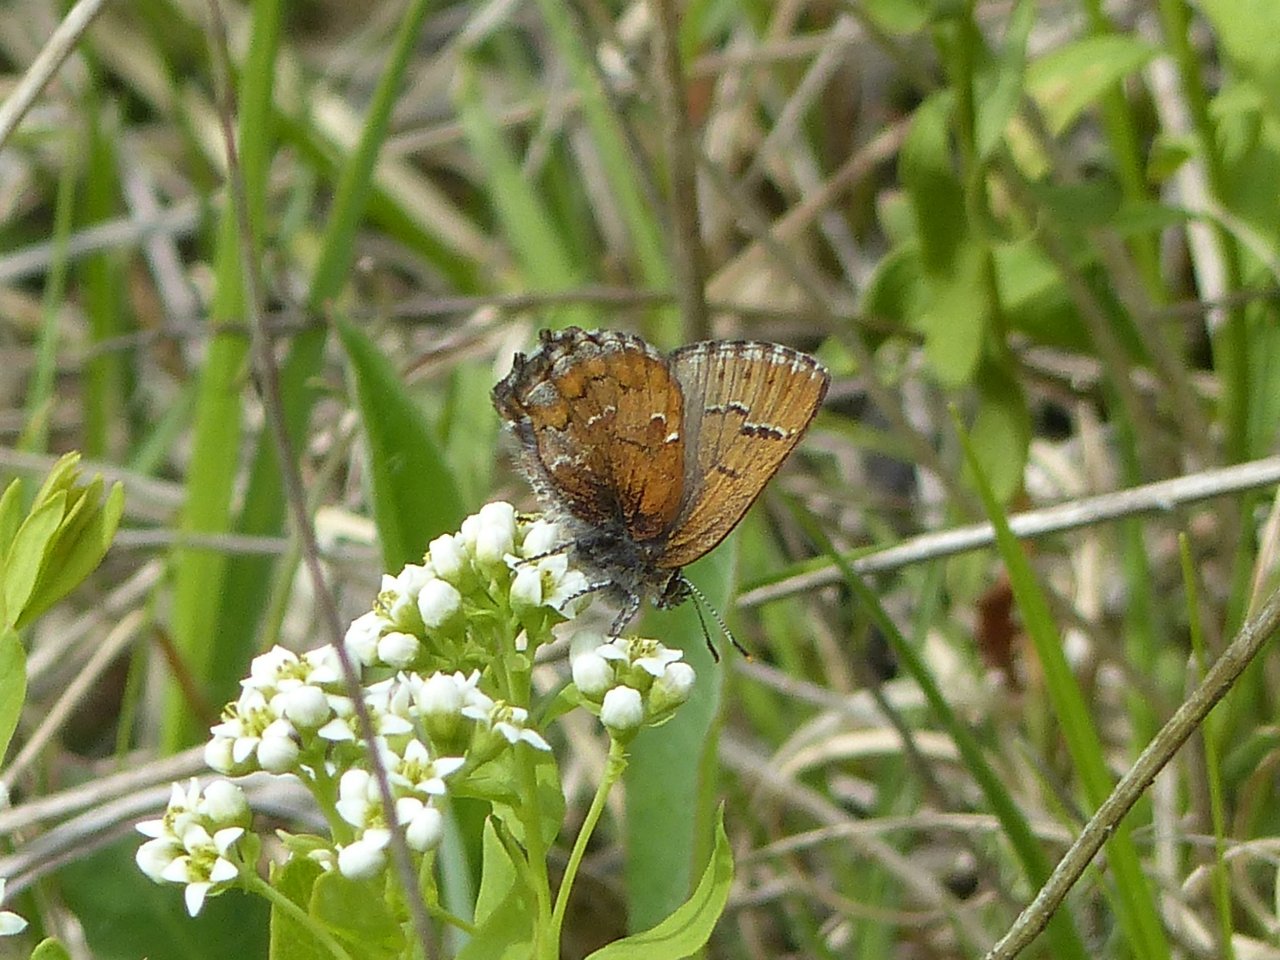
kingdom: Animalia
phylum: Arthropoda
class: Insecta
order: Lepidoptera
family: Lycaenidae
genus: Incisalia
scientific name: Incisalia niphon
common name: Eastern Pine Elfin
